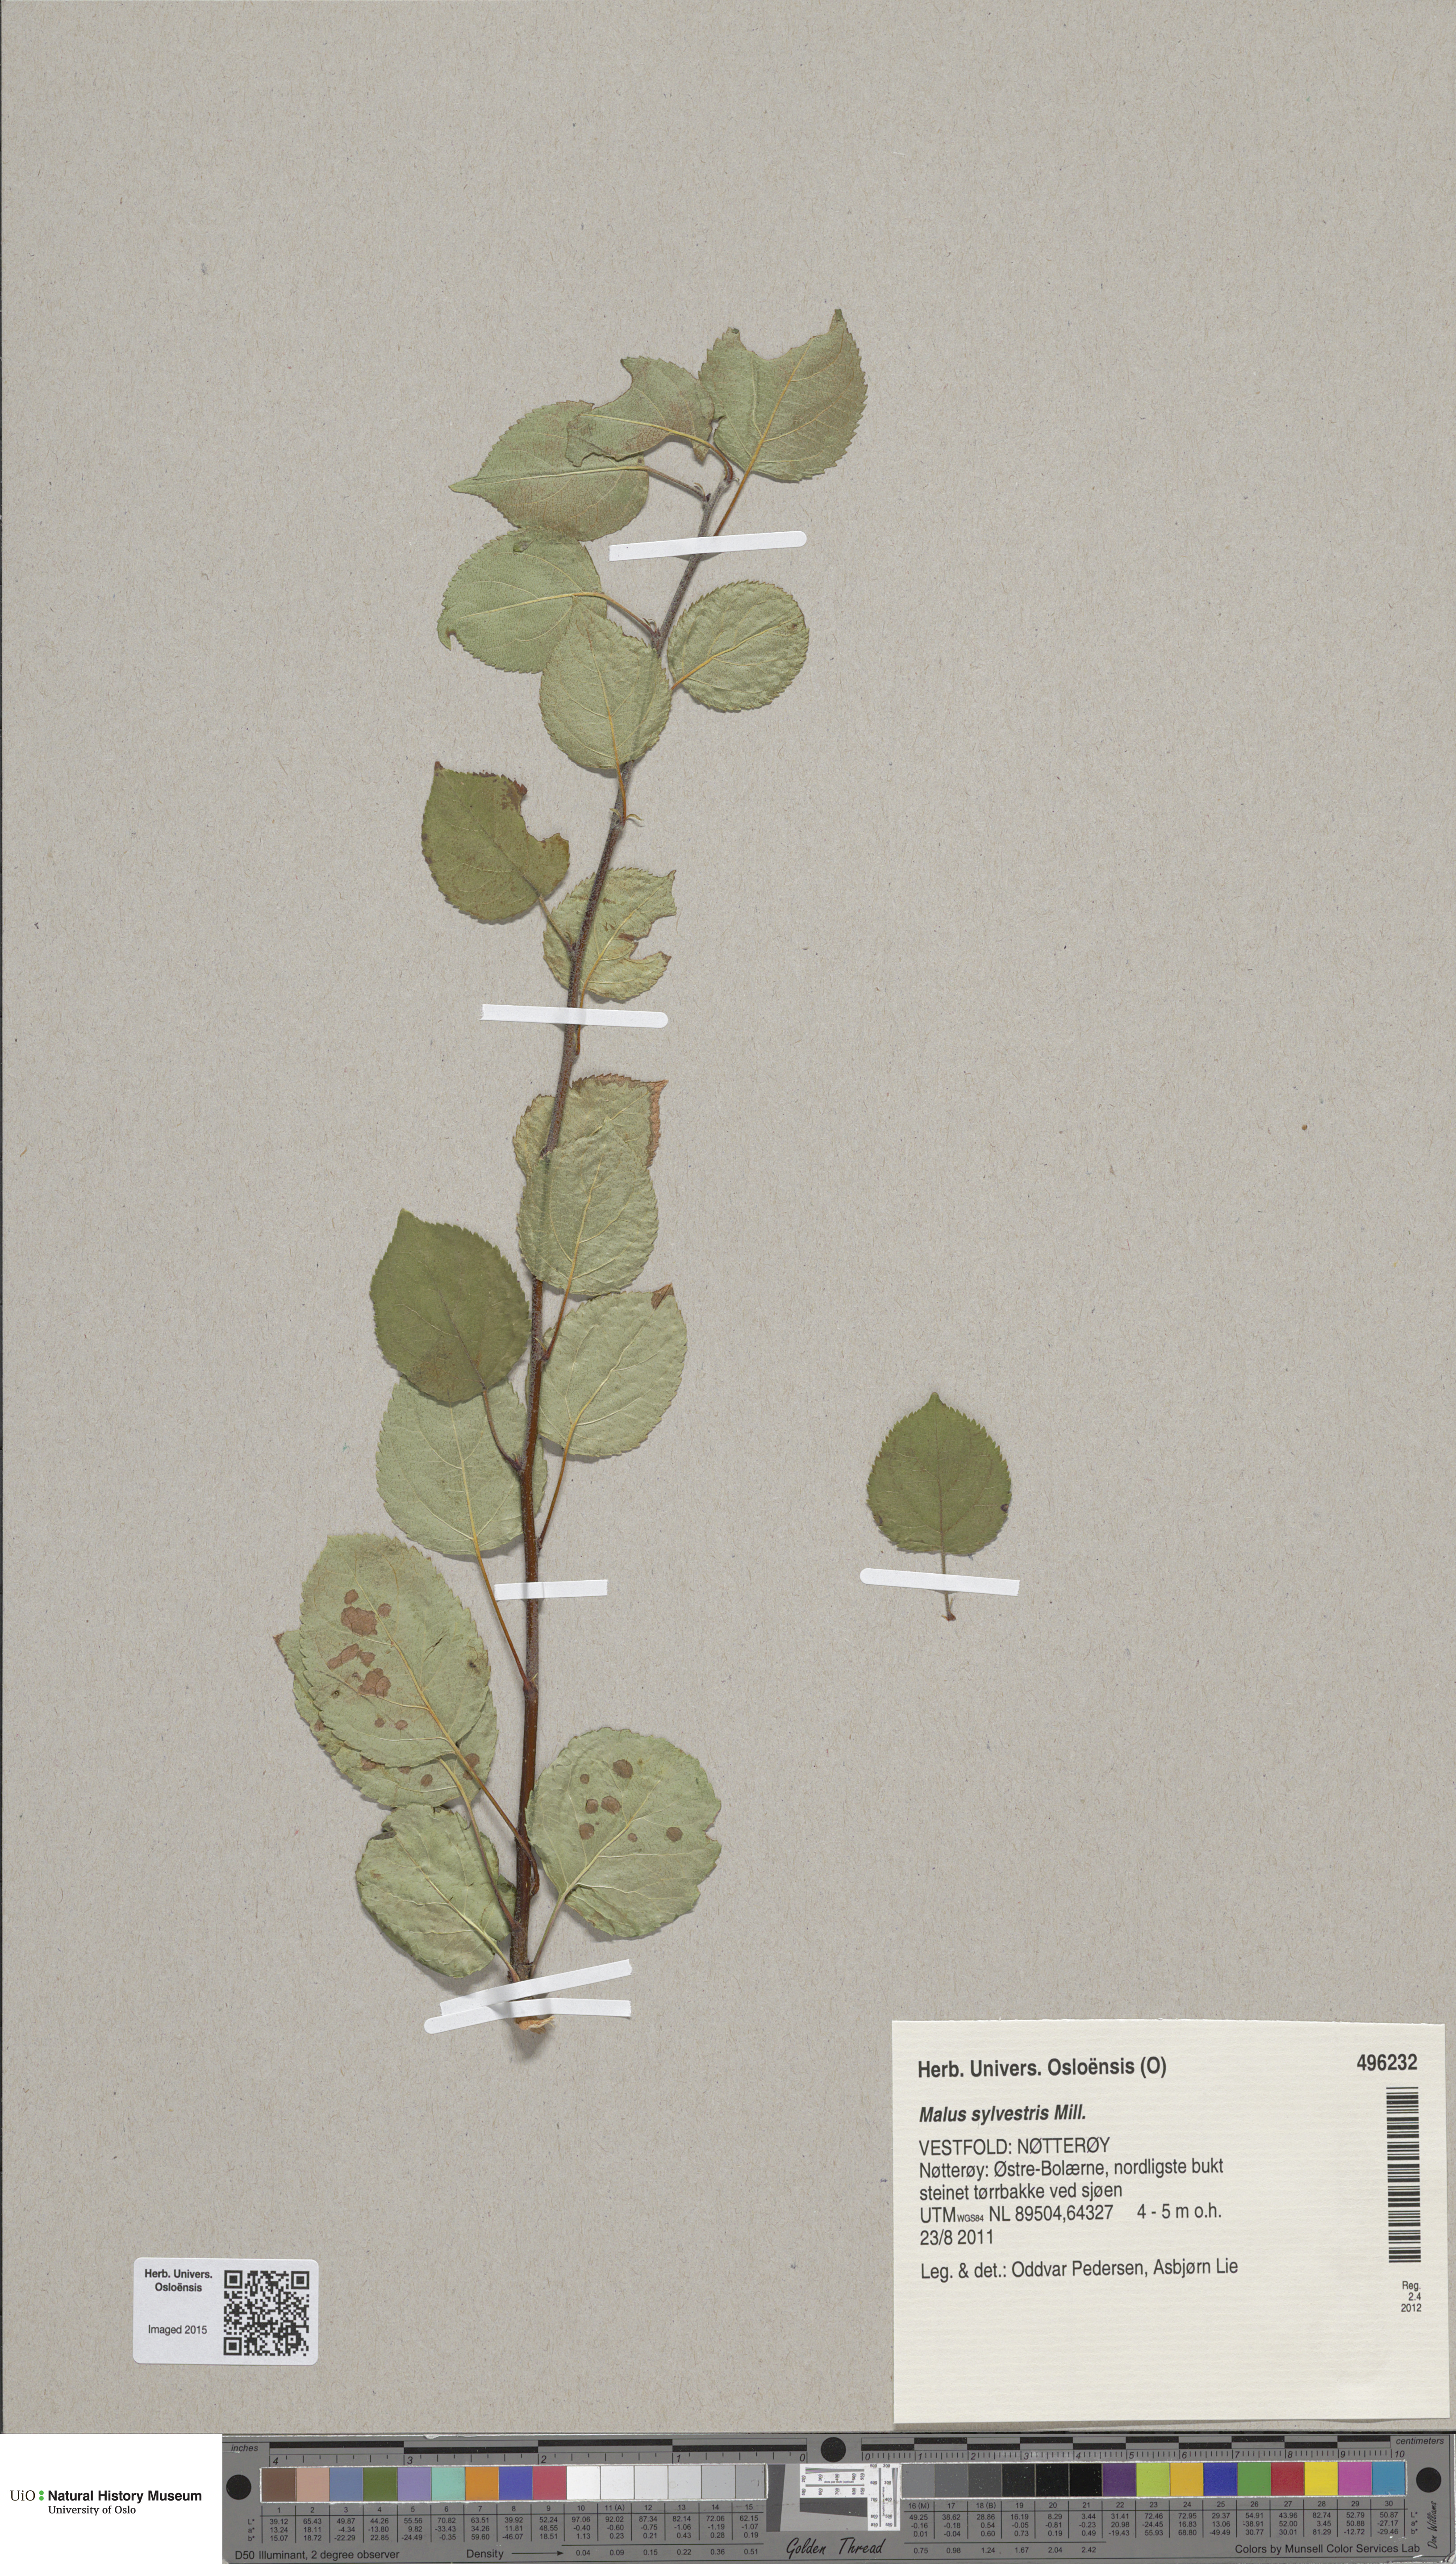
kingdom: Plantae
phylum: Tracheophyta
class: Magnoliopsida
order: Rosales
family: Rosaceae
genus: Malus
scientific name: Malus sylvestris
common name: Crab apple
